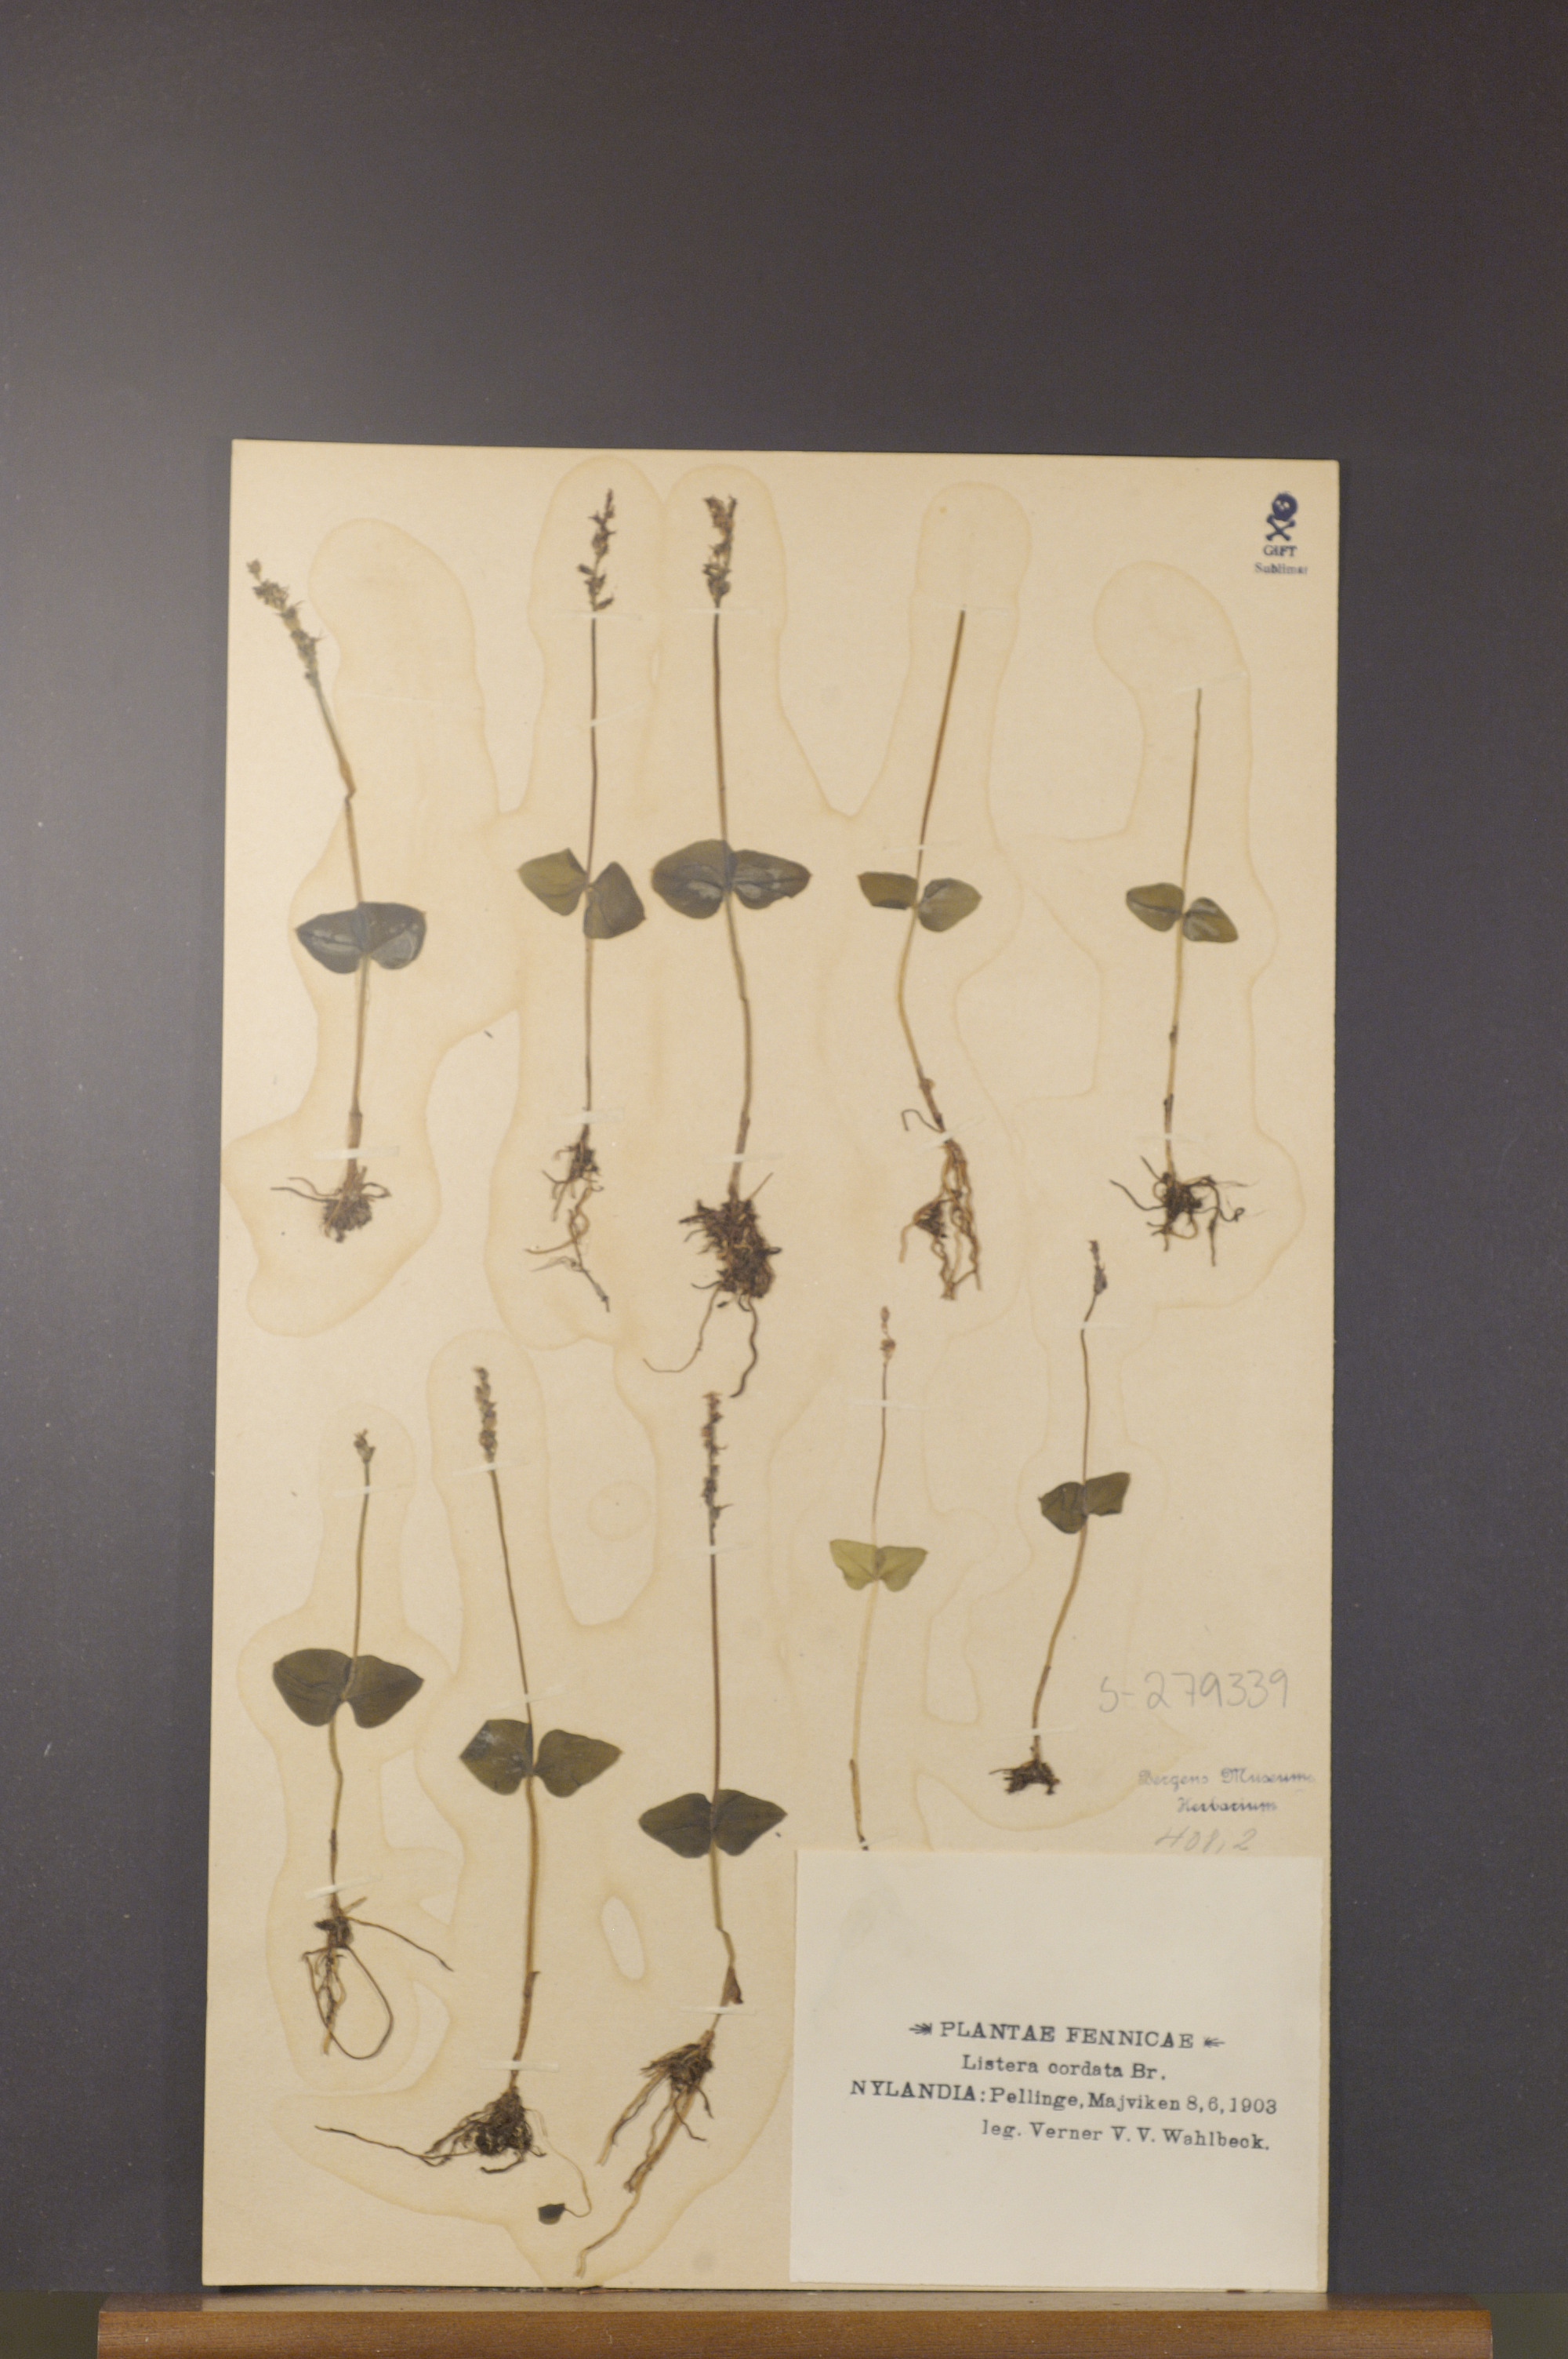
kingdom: Plantae
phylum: Tracheophyta
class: Liliopsida
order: Asparagales
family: Orchidaceae
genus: Neottia
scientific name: Neottia cordata
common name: Lesser twayblade
